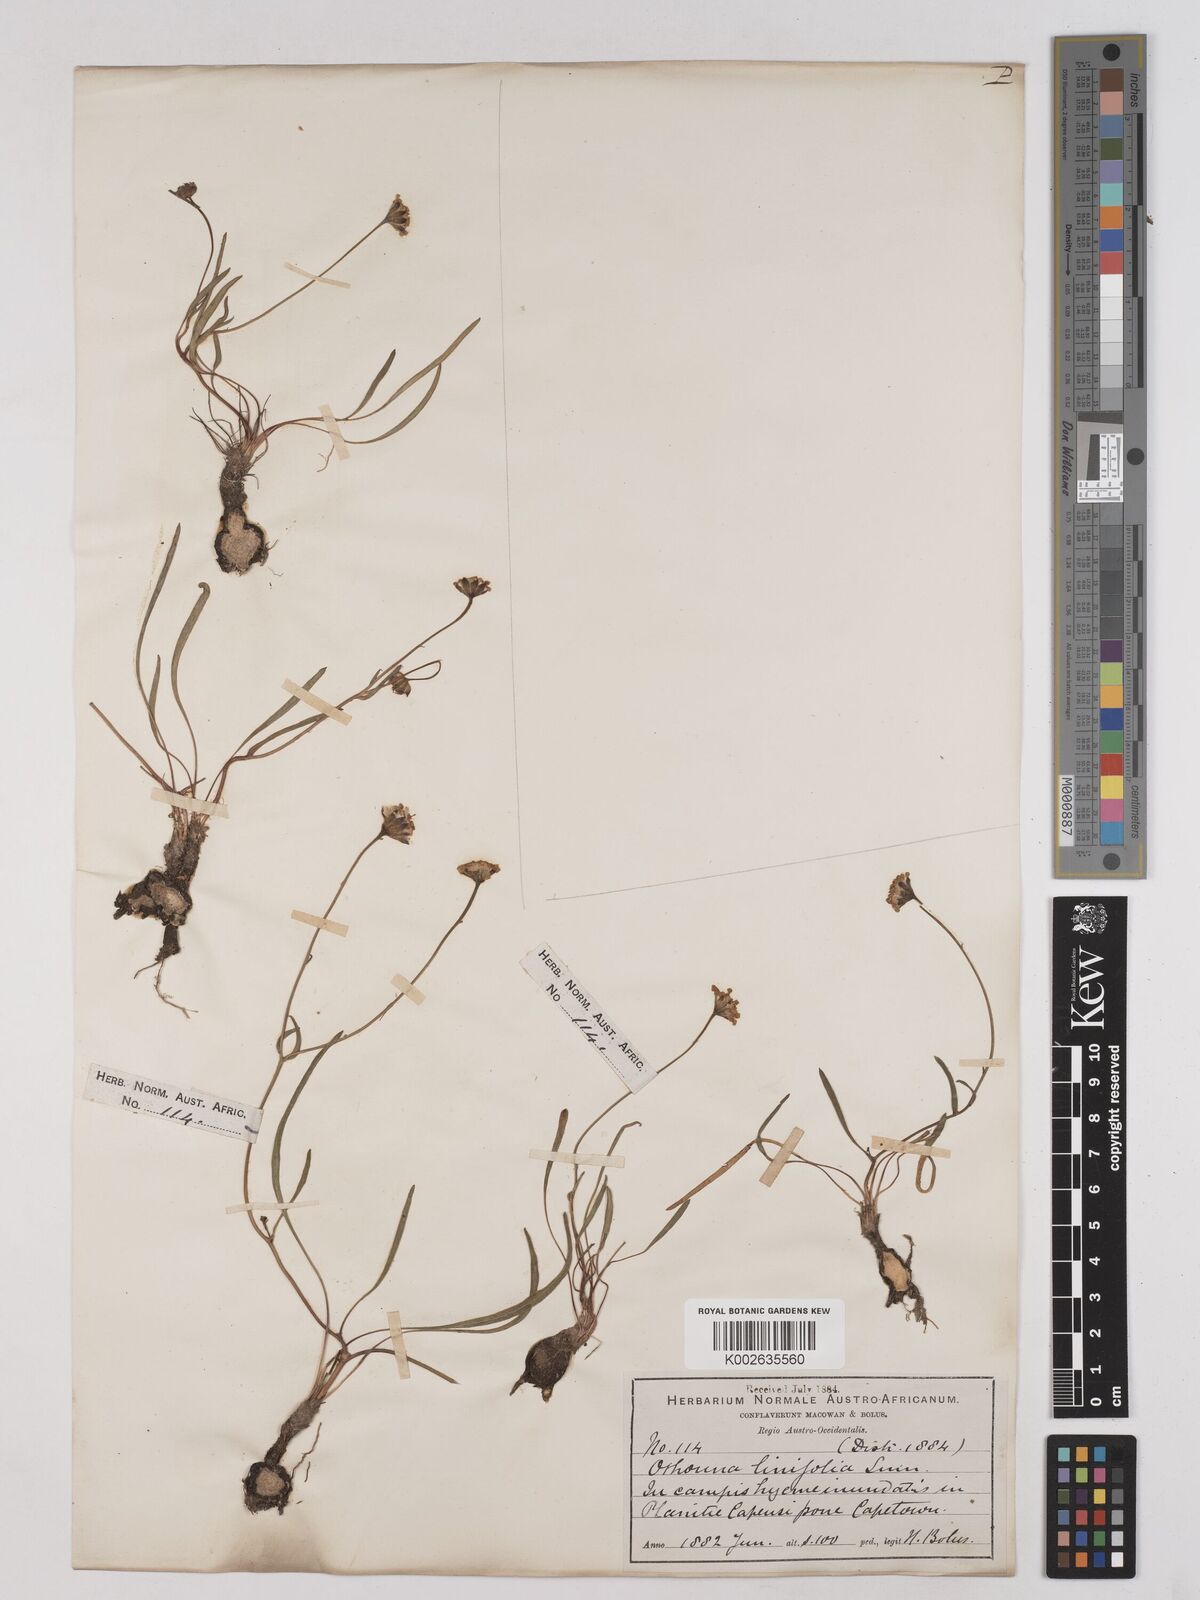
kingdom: Plantae
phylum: Tracheophyta
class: Magnoliopsida
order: Asterales
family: Asteraceae
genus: Othonna
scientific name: Othonna stenophylla
